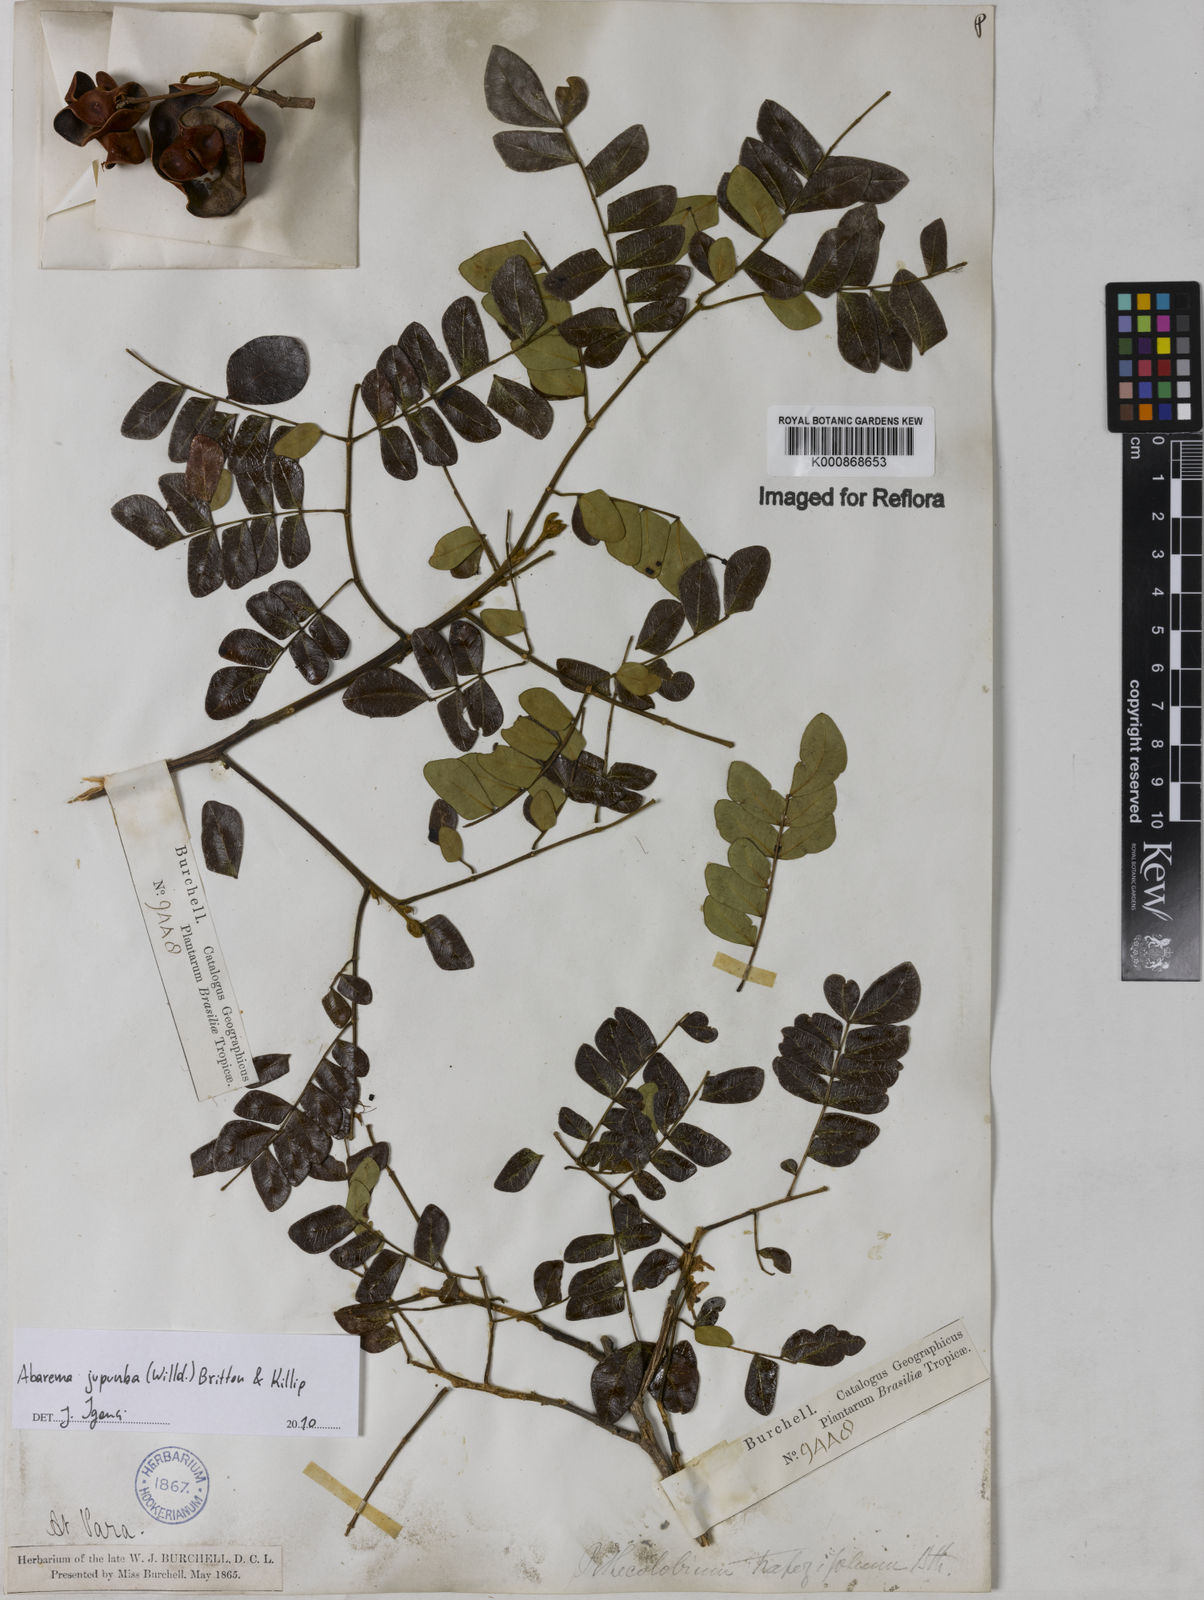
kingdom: Plantae
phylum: Tracheophyta
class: Magnoliopsida
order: Fabales
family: Fabaceae
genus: Jupunba
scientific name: Jupunba trapezifolia
